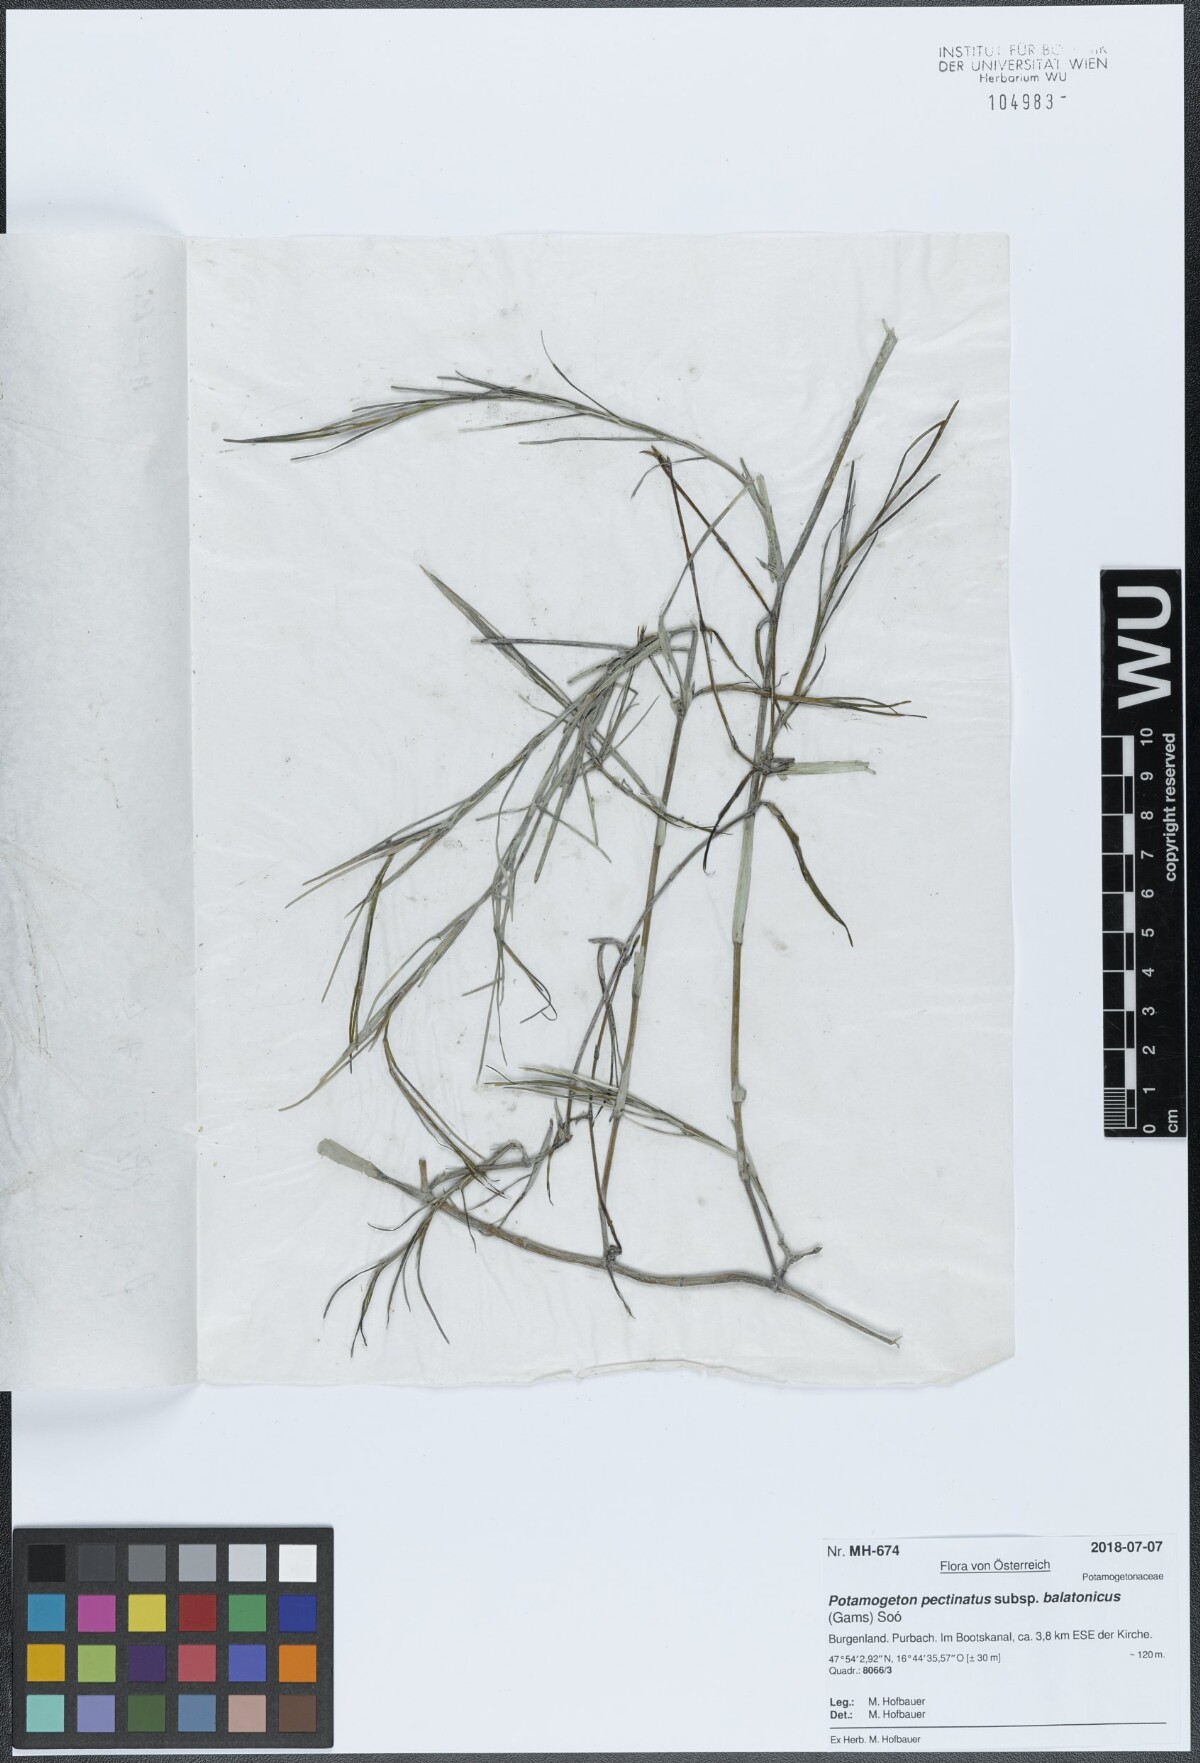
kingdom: Plantae
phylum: Tracheophyta
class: Liliopsida
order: Alismatales
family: Potamogetonaceae
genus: Stuckenia
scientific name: Stuckenia pectinata
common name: Sago pondweed
